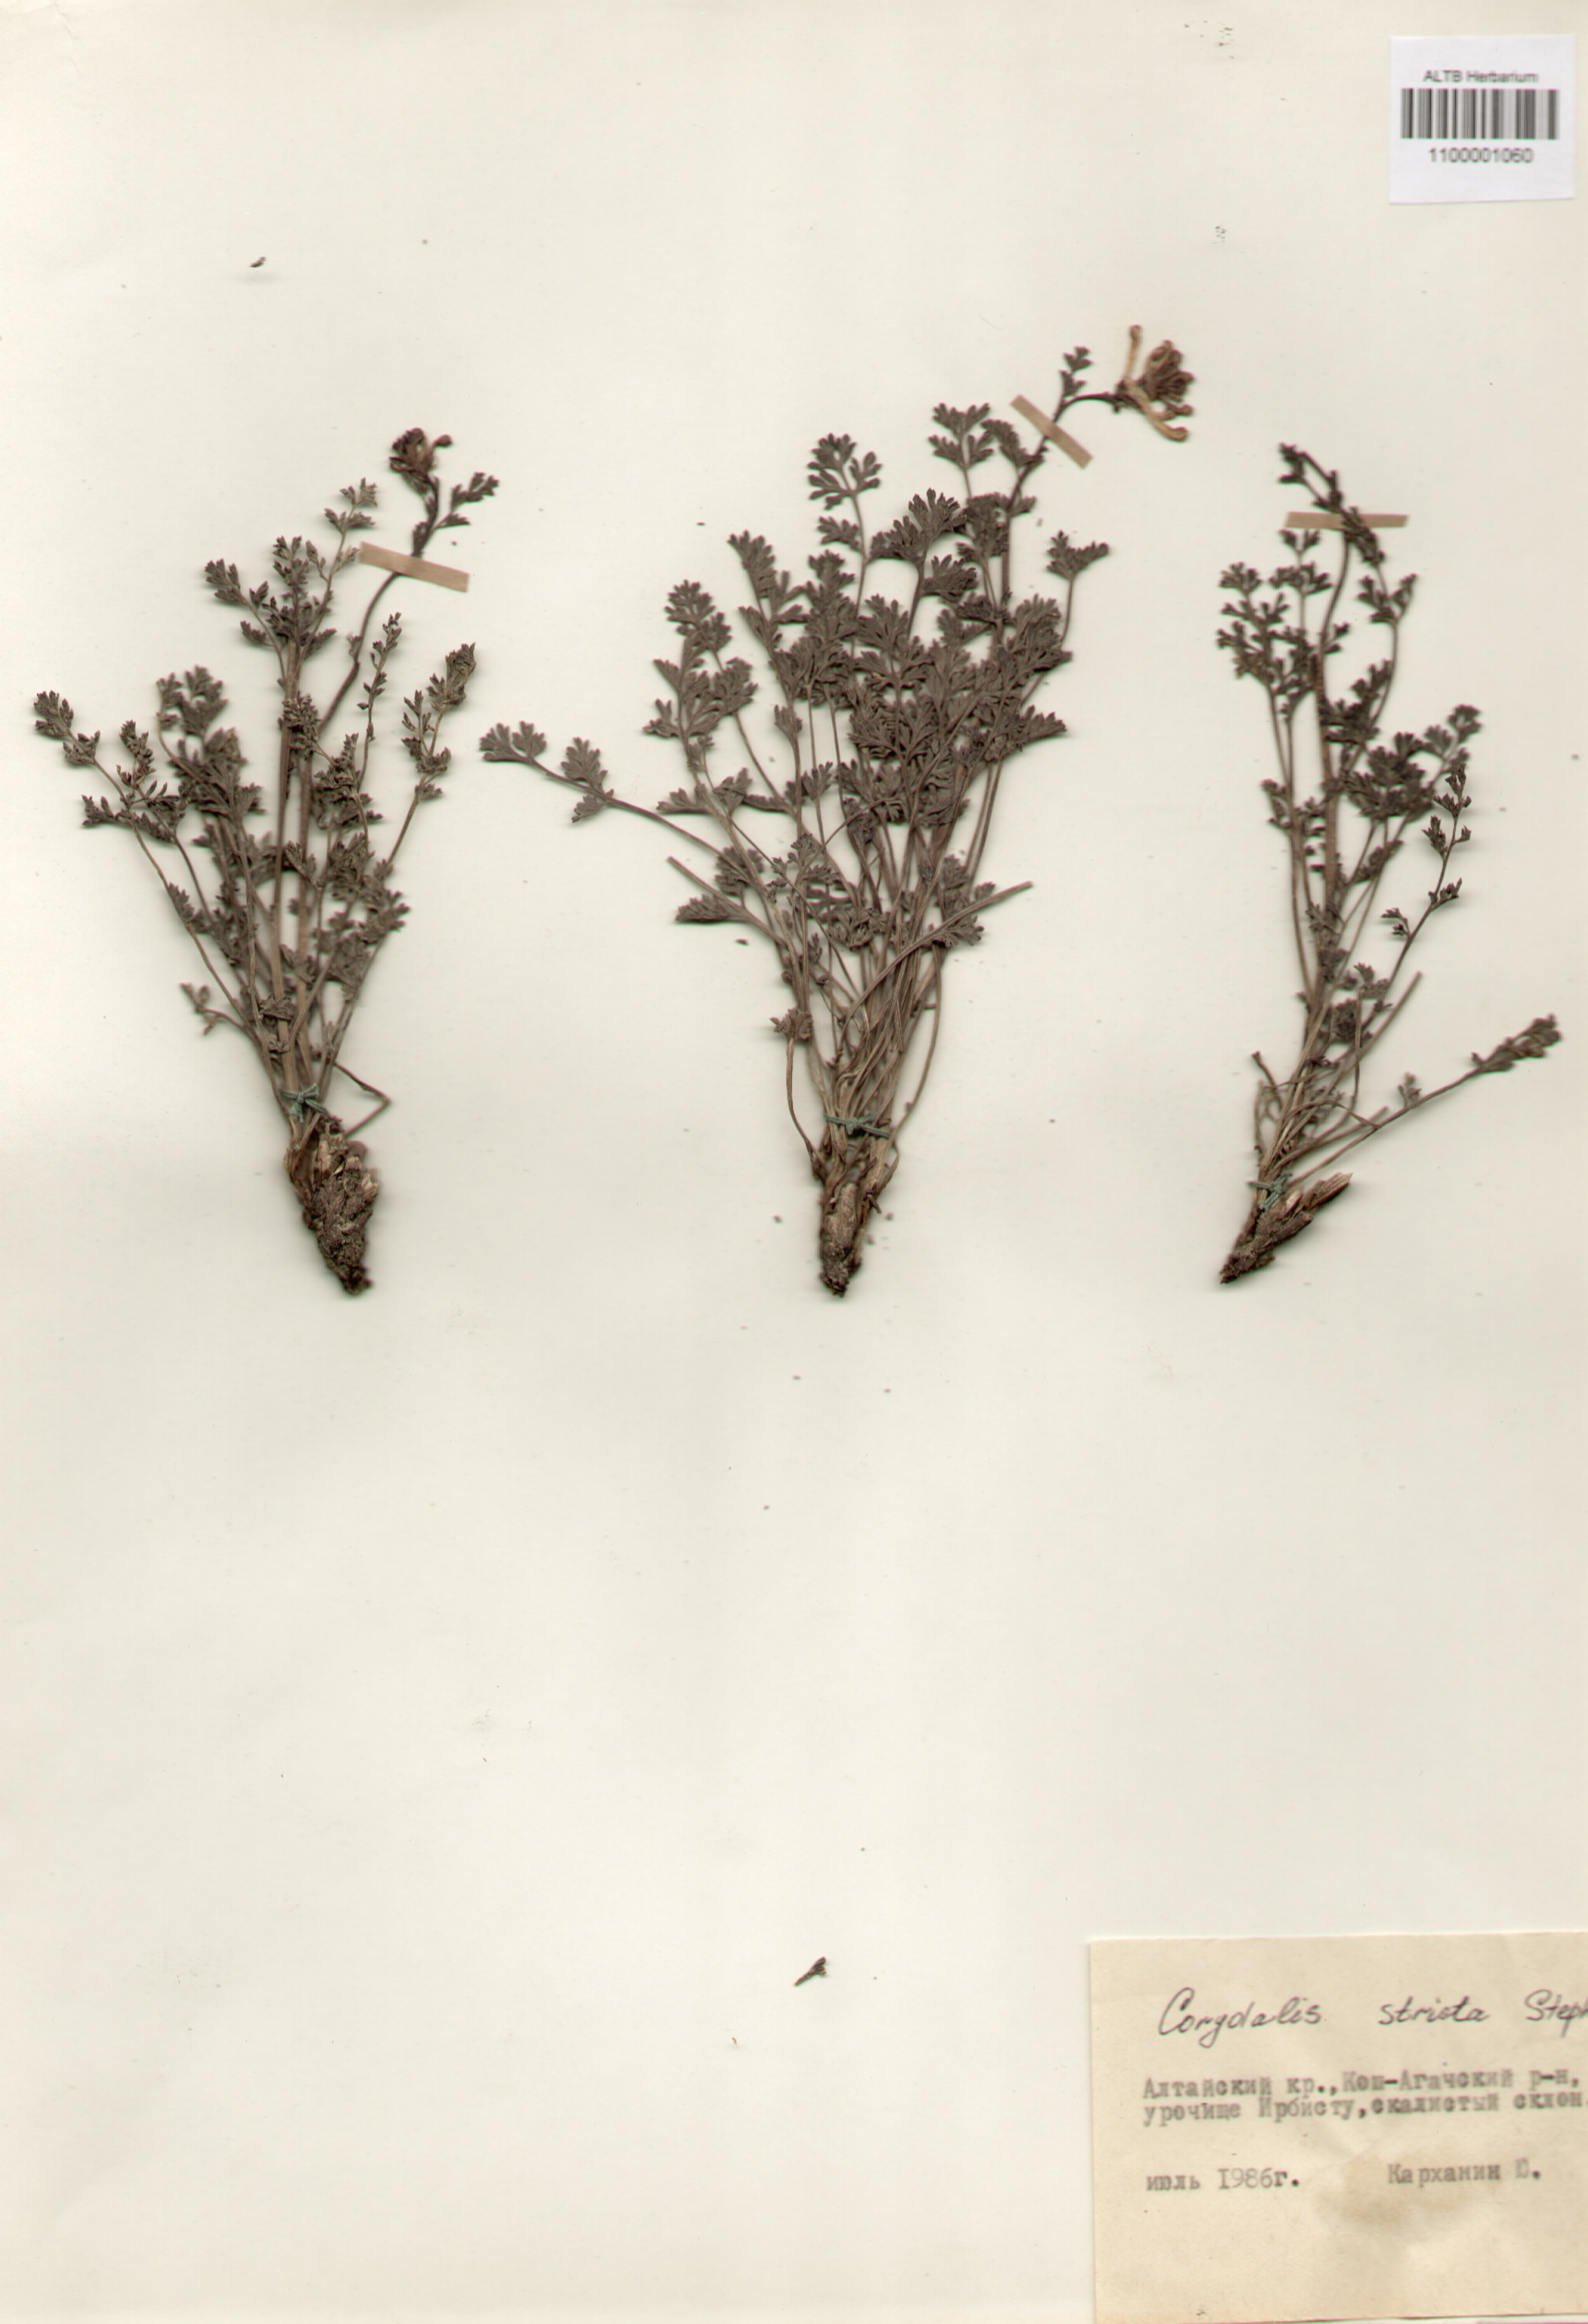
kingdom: Plantae
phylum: Tracheophyta
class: Magnoliopsida
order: Ranunculales
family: Papaveraceae
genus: Corydalis
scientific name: Corydalis stricta
